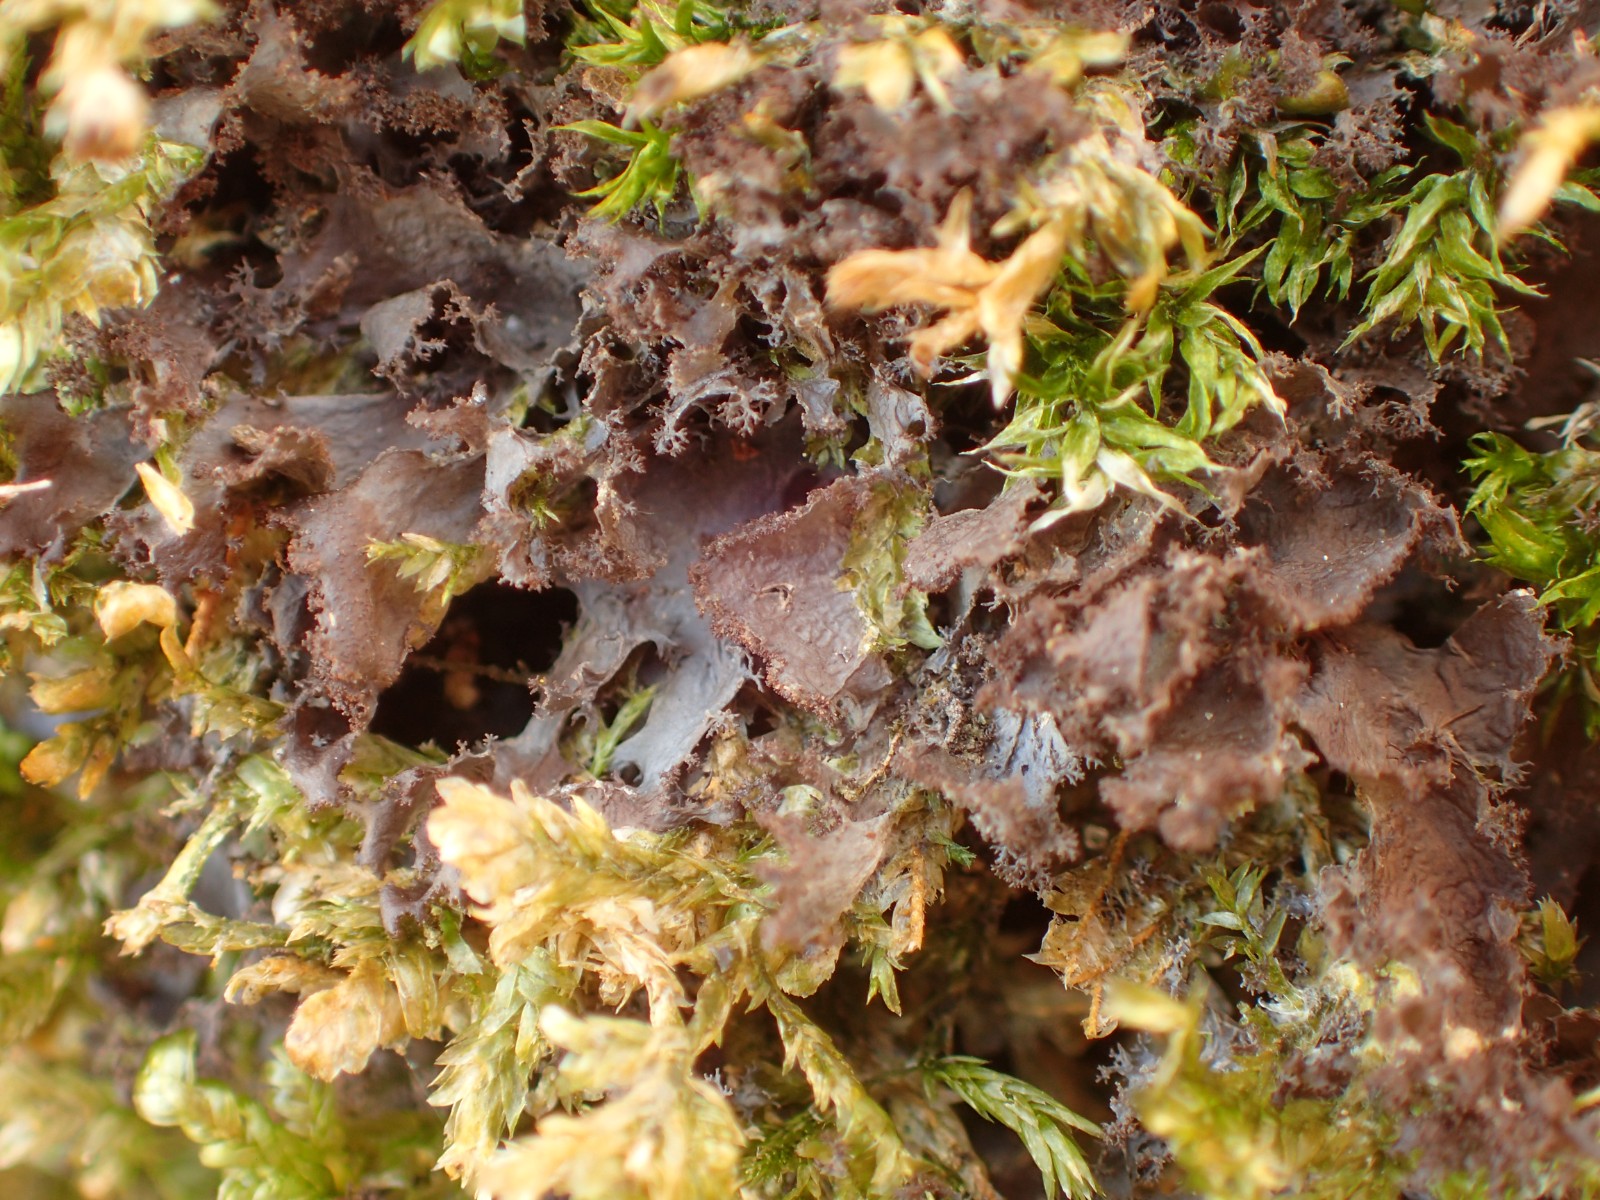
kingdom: Fungi
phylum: Ascomycota
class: Lecanoromycetes
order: Peltigerales
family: Collemataceae
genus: Scytinium
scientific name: Scytinium lichenoides
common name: frynset hindelav
